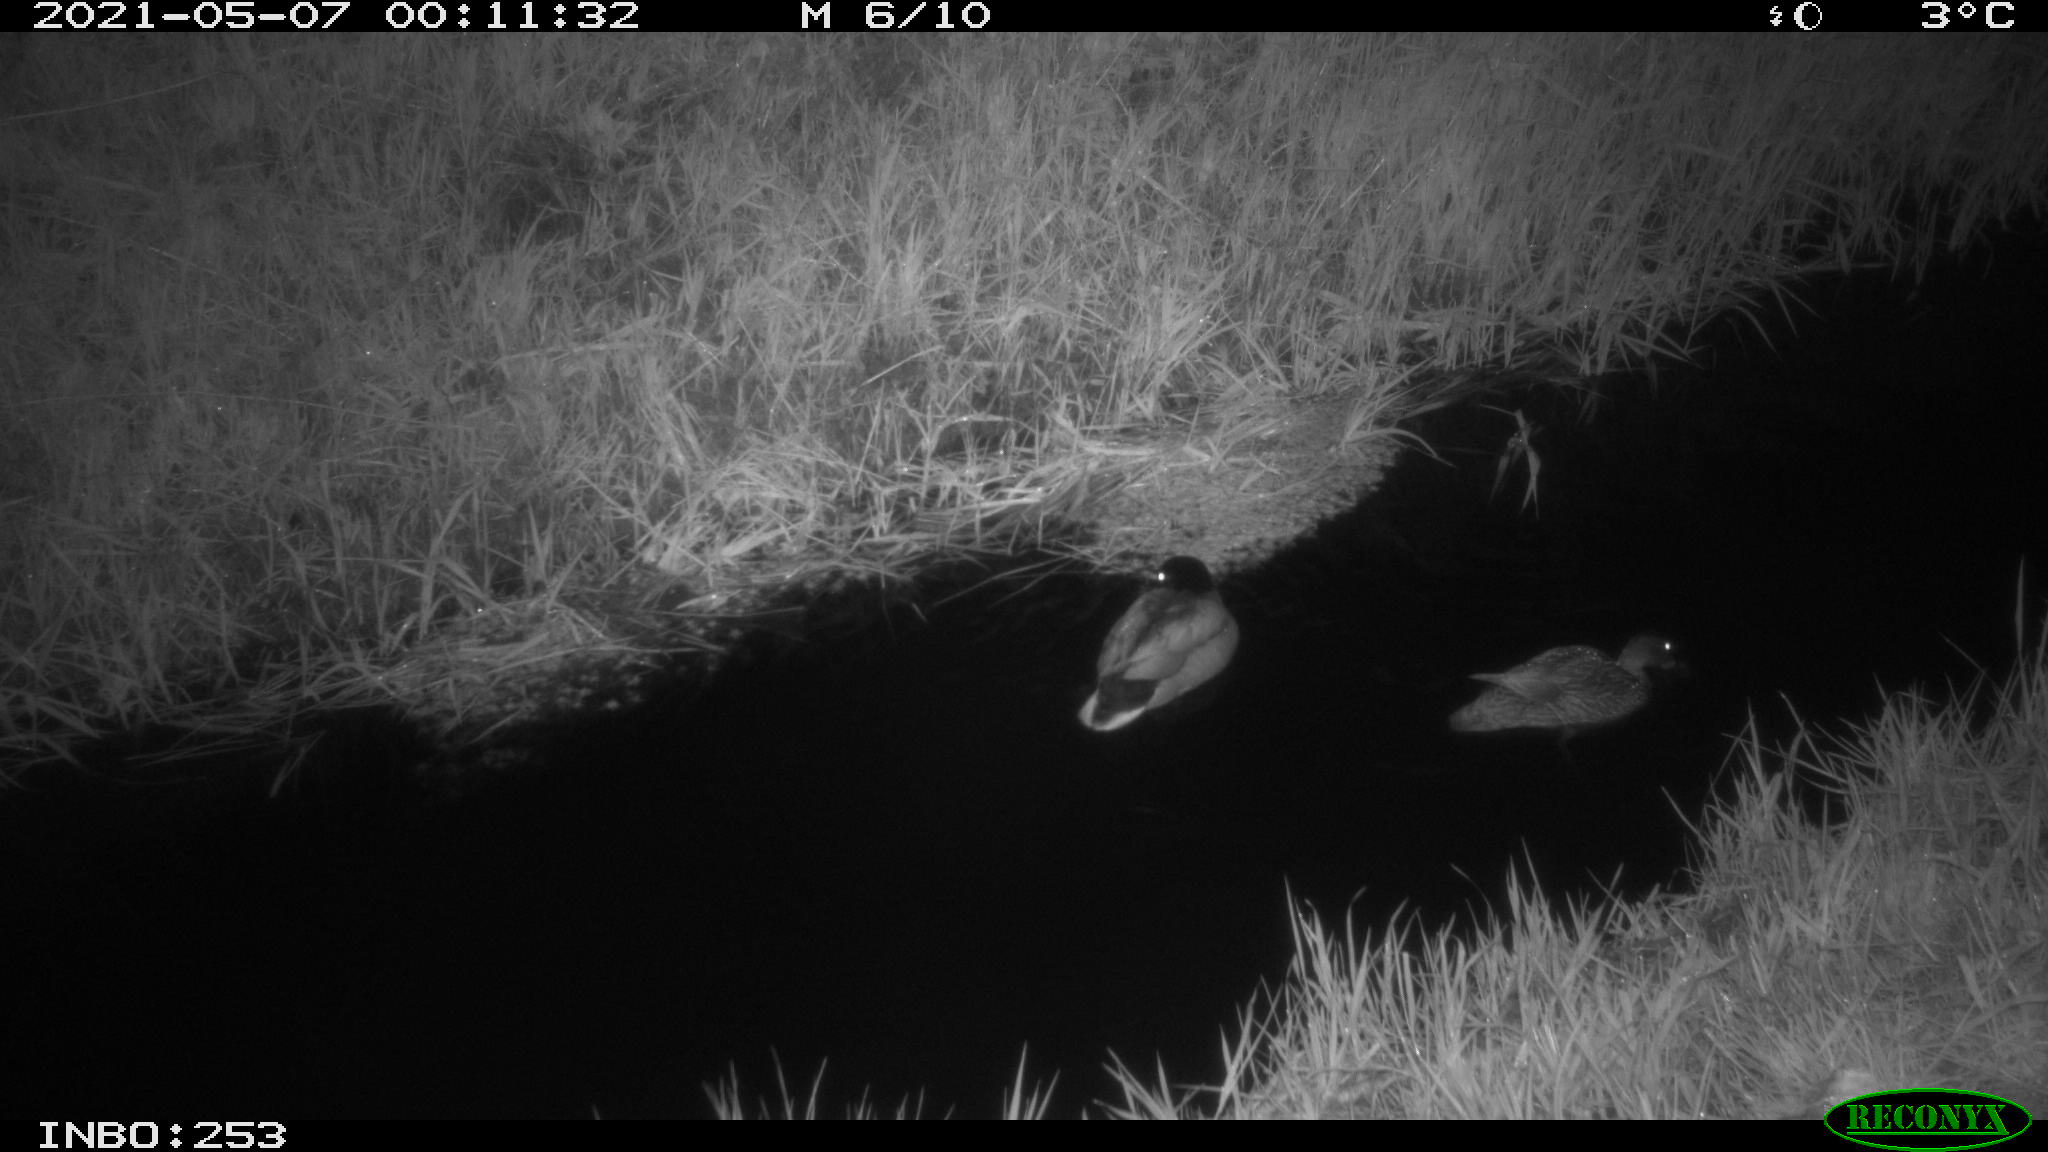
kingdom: Animalia
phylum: Chordata
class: Aves
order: Anseriformes
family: Anatidae
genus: Anas
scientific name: Anas platyrhynchos
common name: Mallard
